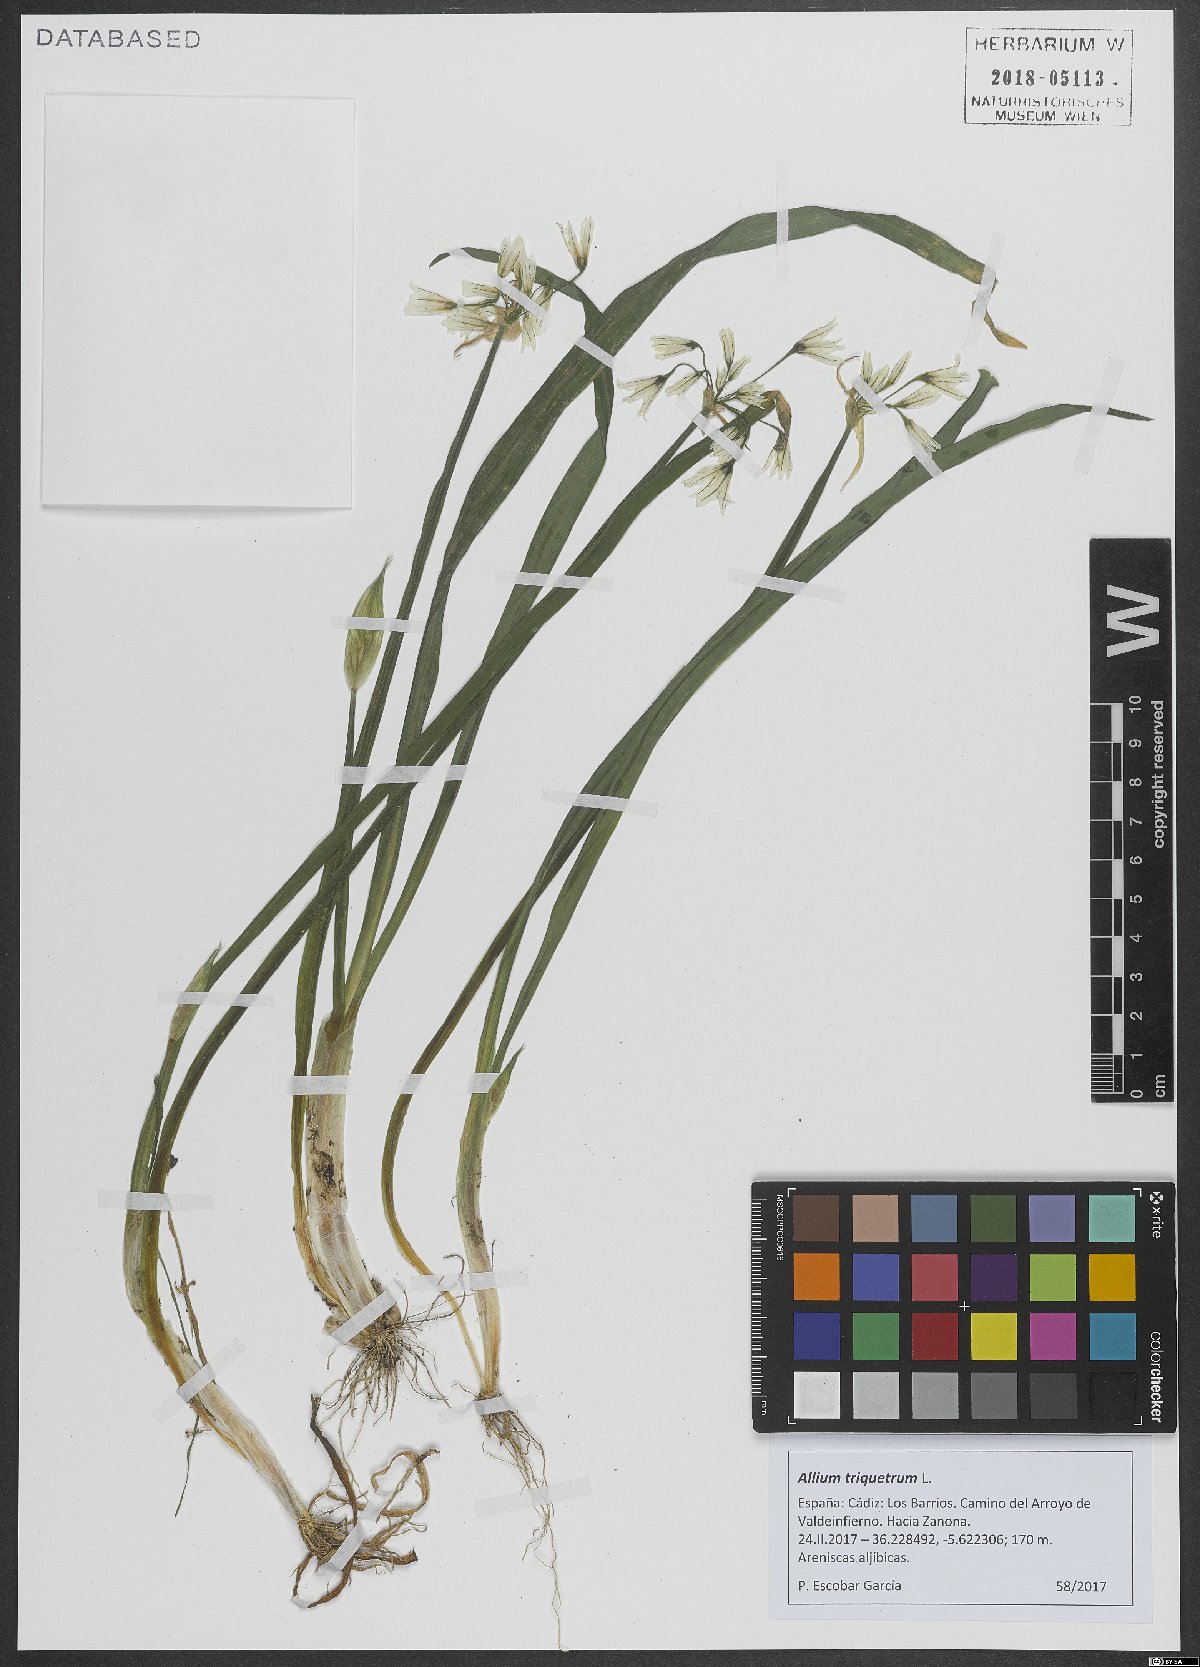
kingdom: Plantae
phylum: Tracheophyta
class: Liliopsida
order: Asparagales
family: Amaryllidaceae
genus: Allium
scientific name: Allium triquetrum
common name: Three-cornered garlic
